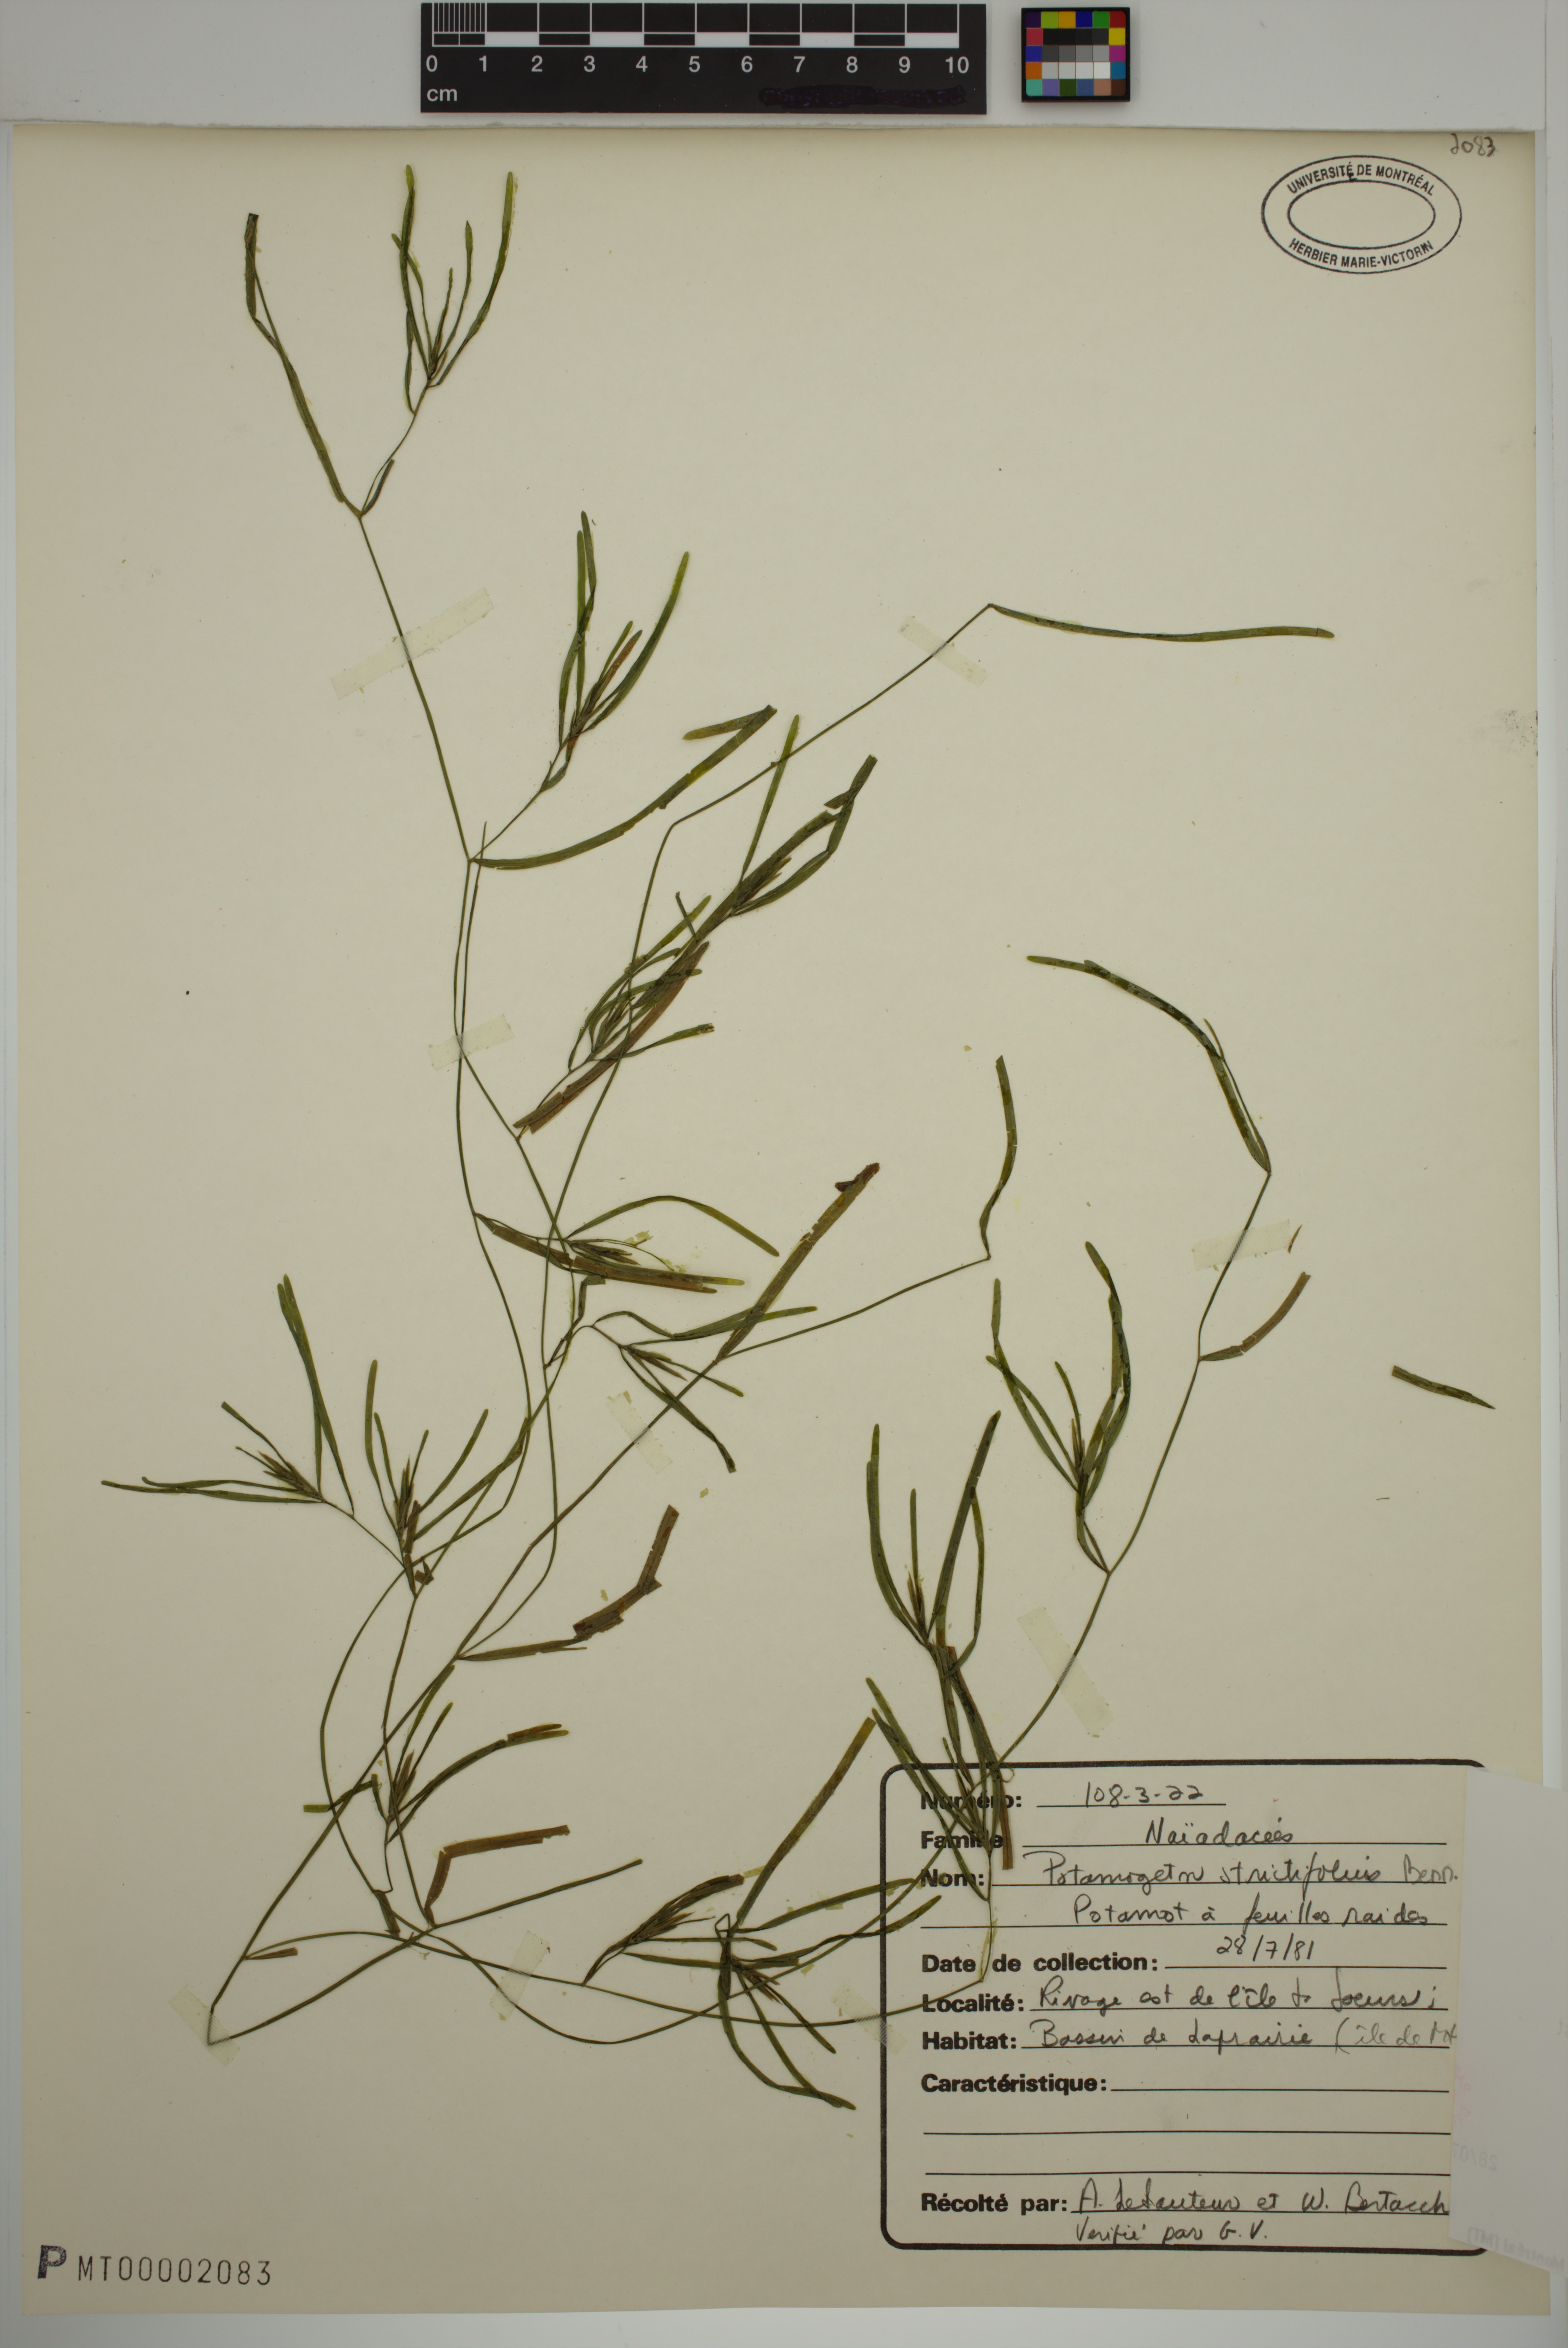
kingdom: Plantae
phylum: Tracheophyta
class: Liliopsida
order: Alismatales
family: Potamogetonaceae
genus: Potamogeton
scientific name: Potamogeton strictifolius
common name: Linear-leaved pondweed
